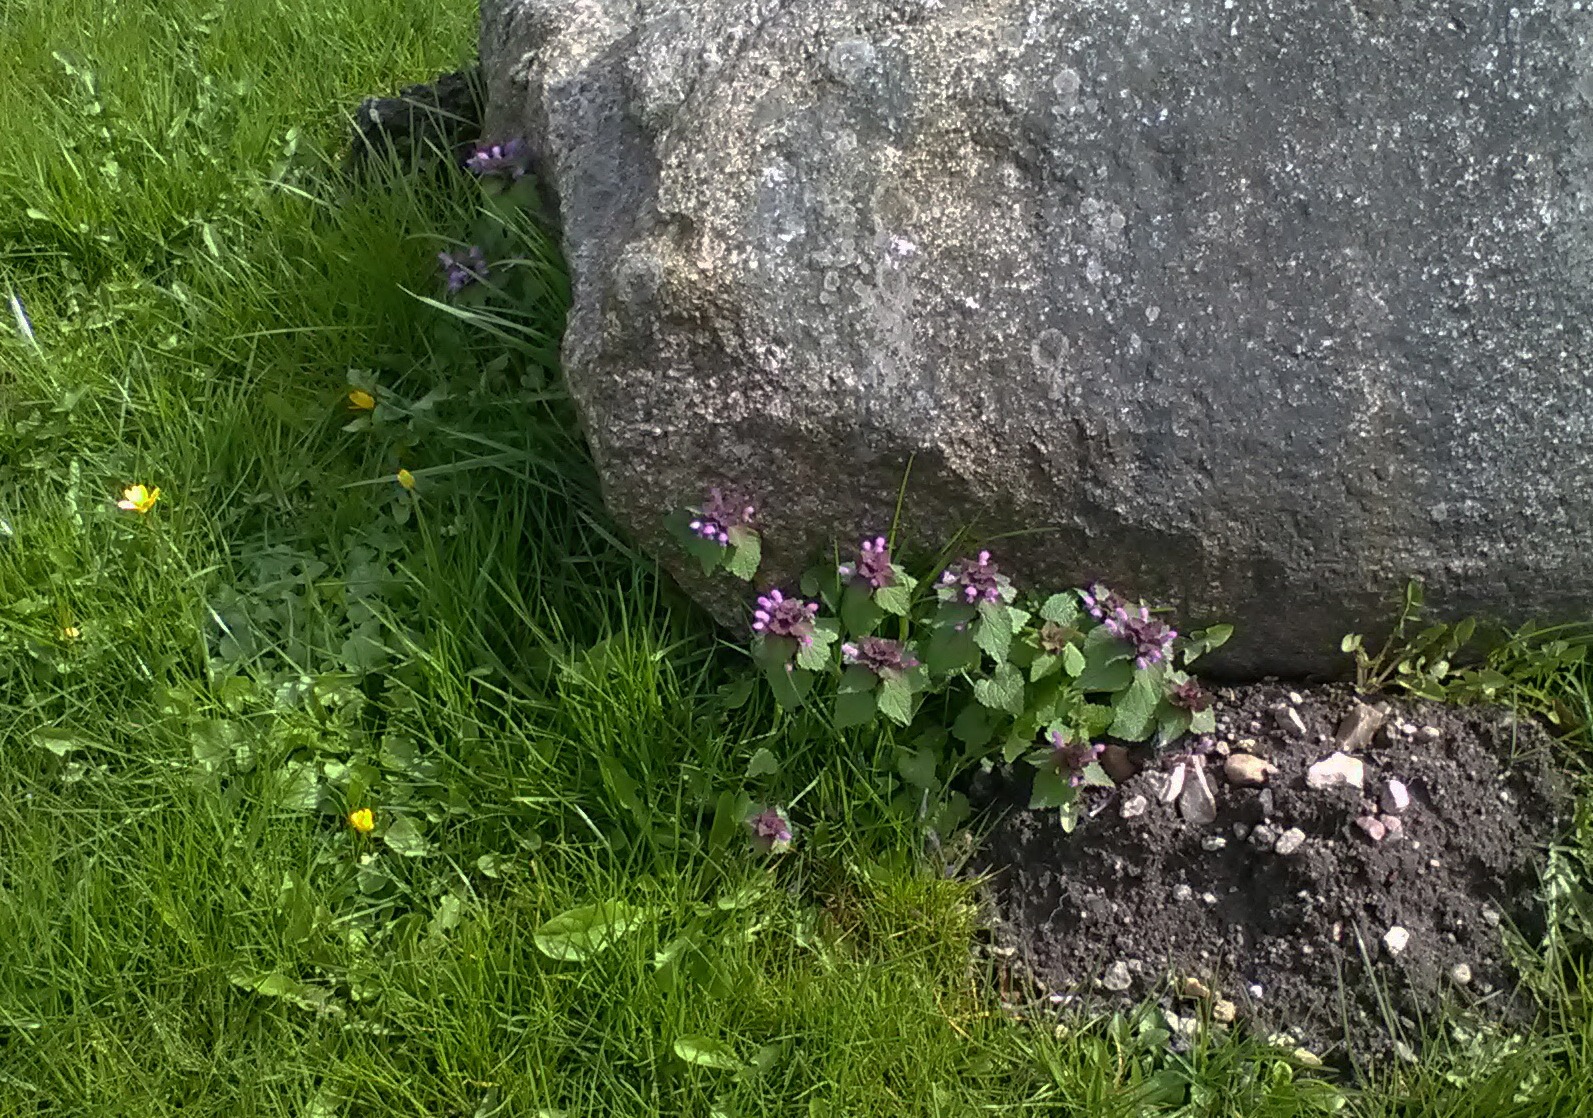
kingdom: Plantae
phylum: Tracheophyta
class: Magnoliopsida
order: Lamiales
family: Lamiaceae
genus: Lamium
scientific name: Lamium purpureum
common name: Rød tvetand
